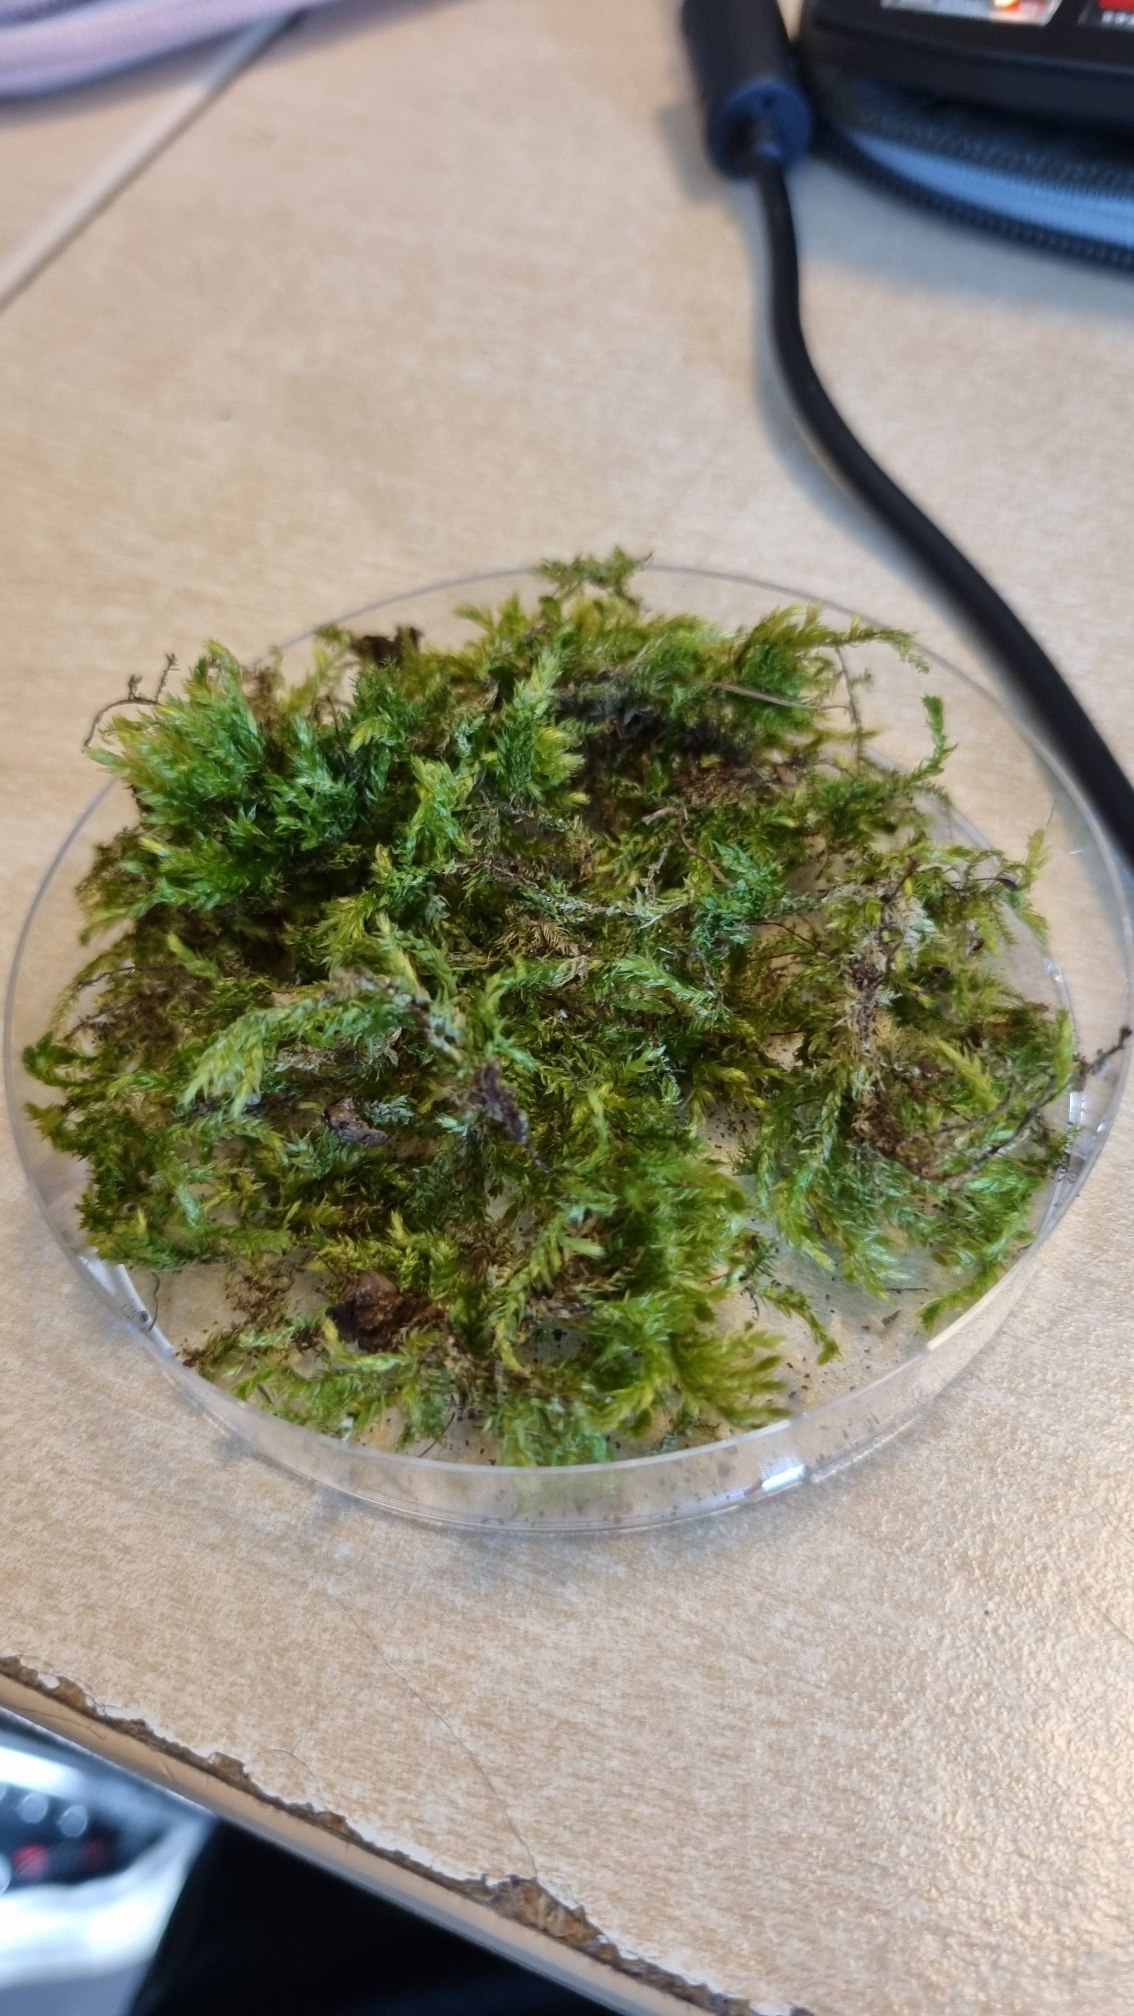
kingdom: Plantae
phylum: Bryophyta
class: Bryopsida
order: Hypnales
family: Brachytheciaceae
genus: Brachythecium
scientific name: Brachythecium rutabulum
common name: Almindelig kortkapsel
